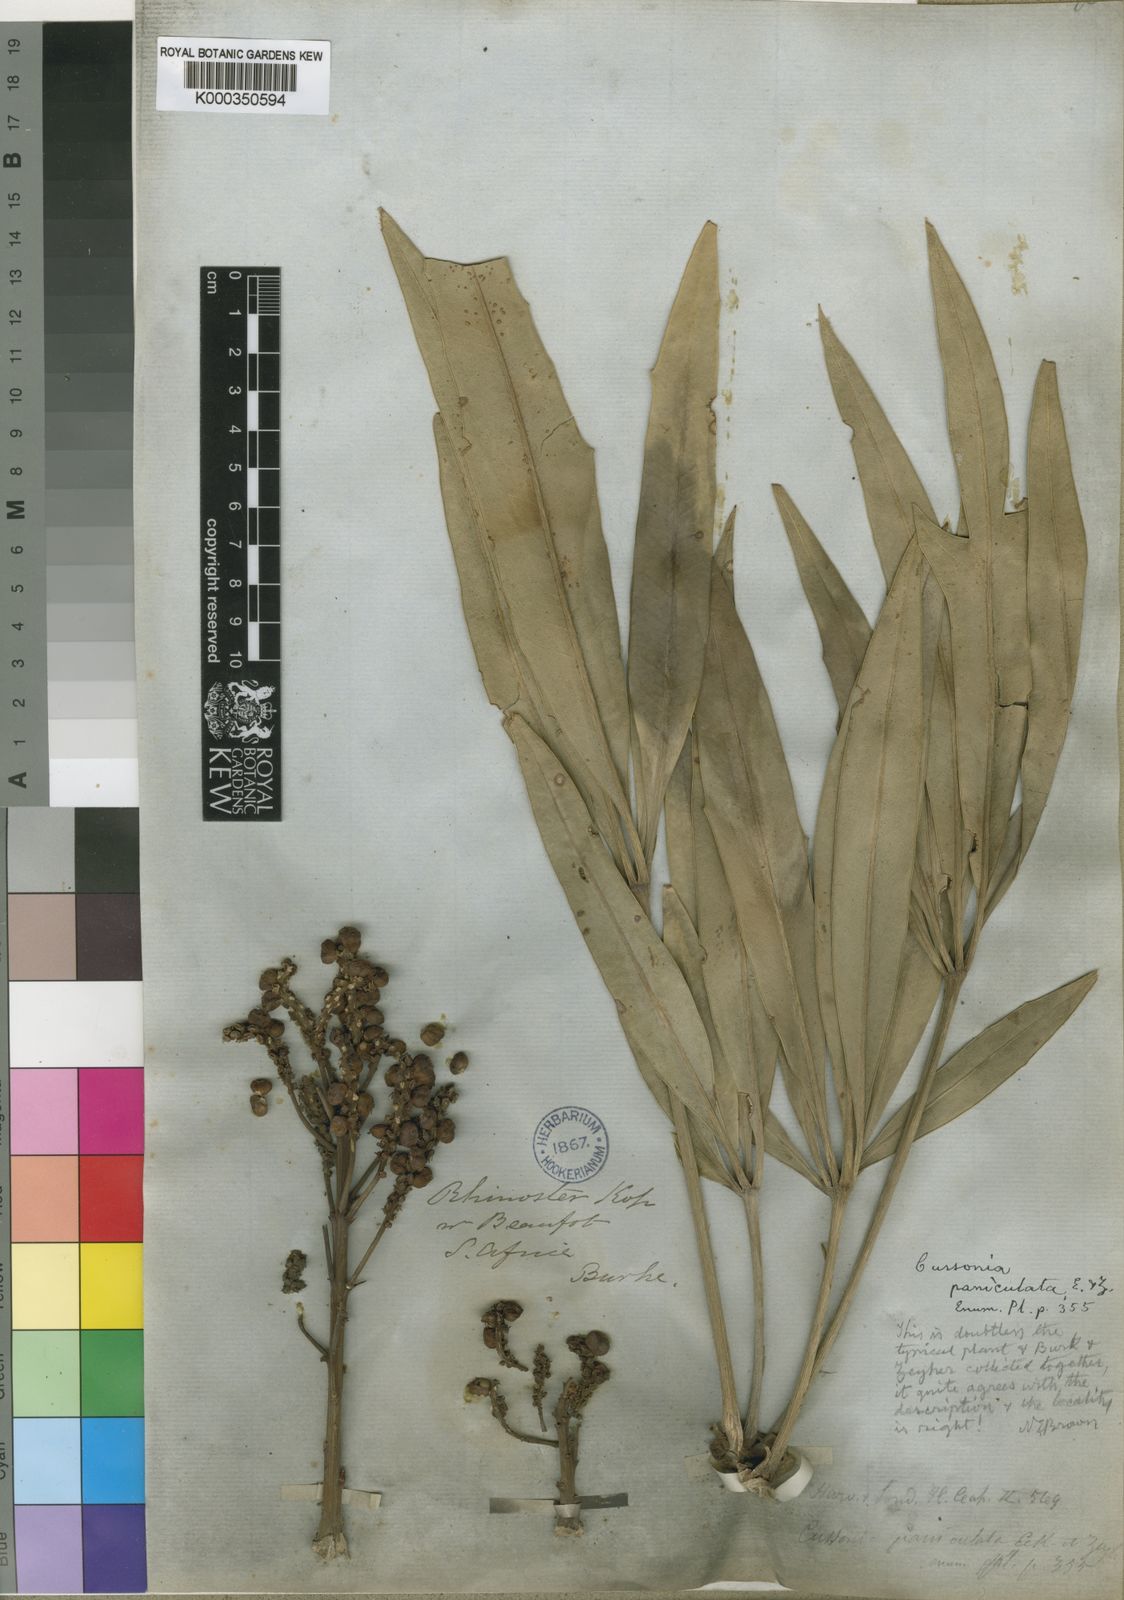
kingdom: Plantae
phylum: Tracheophyta
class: Magnoliopsida
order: Apiales
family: Araliaceae
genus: Cussonia
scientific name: Cussonia paniculata
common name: Cabbagetree
